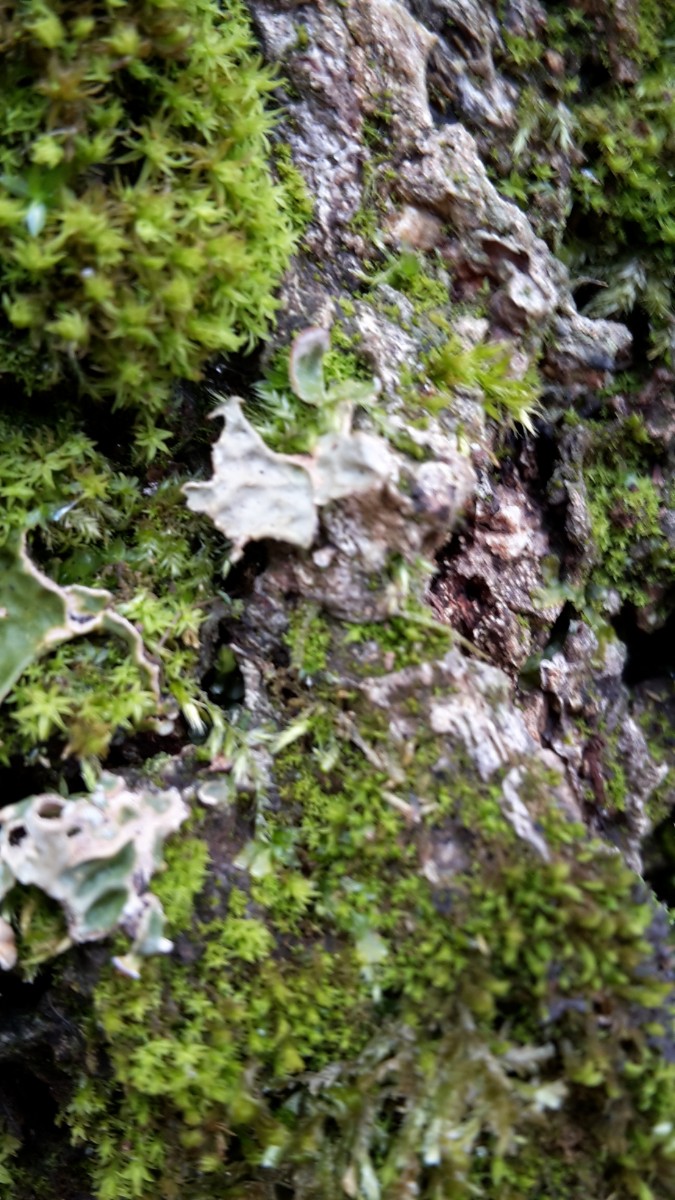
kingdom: Fungi
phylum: Ascomycota
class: Lecanoromycetes
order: Peltigerales
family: Lobariaceae
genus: Lobaria
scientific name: Lobaria pulmonaria
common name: almindelig lungelav
